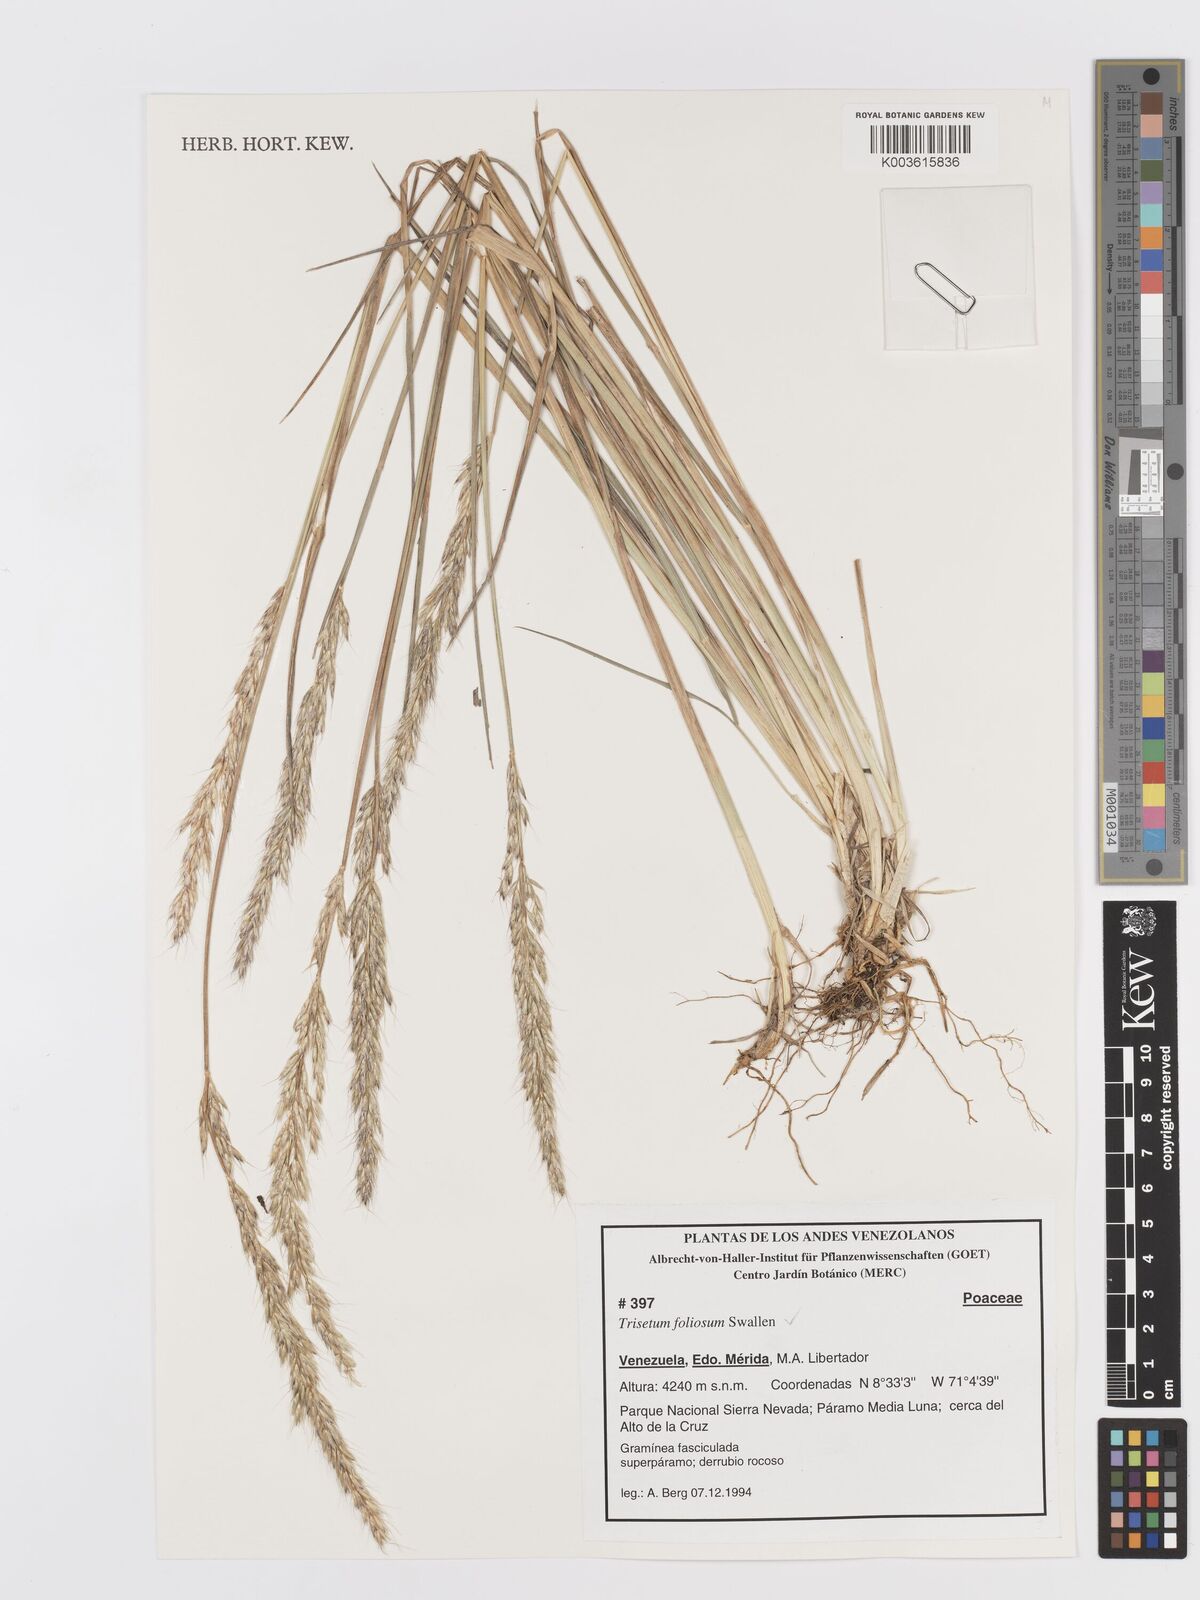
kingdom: Plantae
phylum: Tracheophyta
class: Liliopsida
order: Poales
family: Poaceae
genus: Peyritschia
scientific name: Peyritschia foliosa
